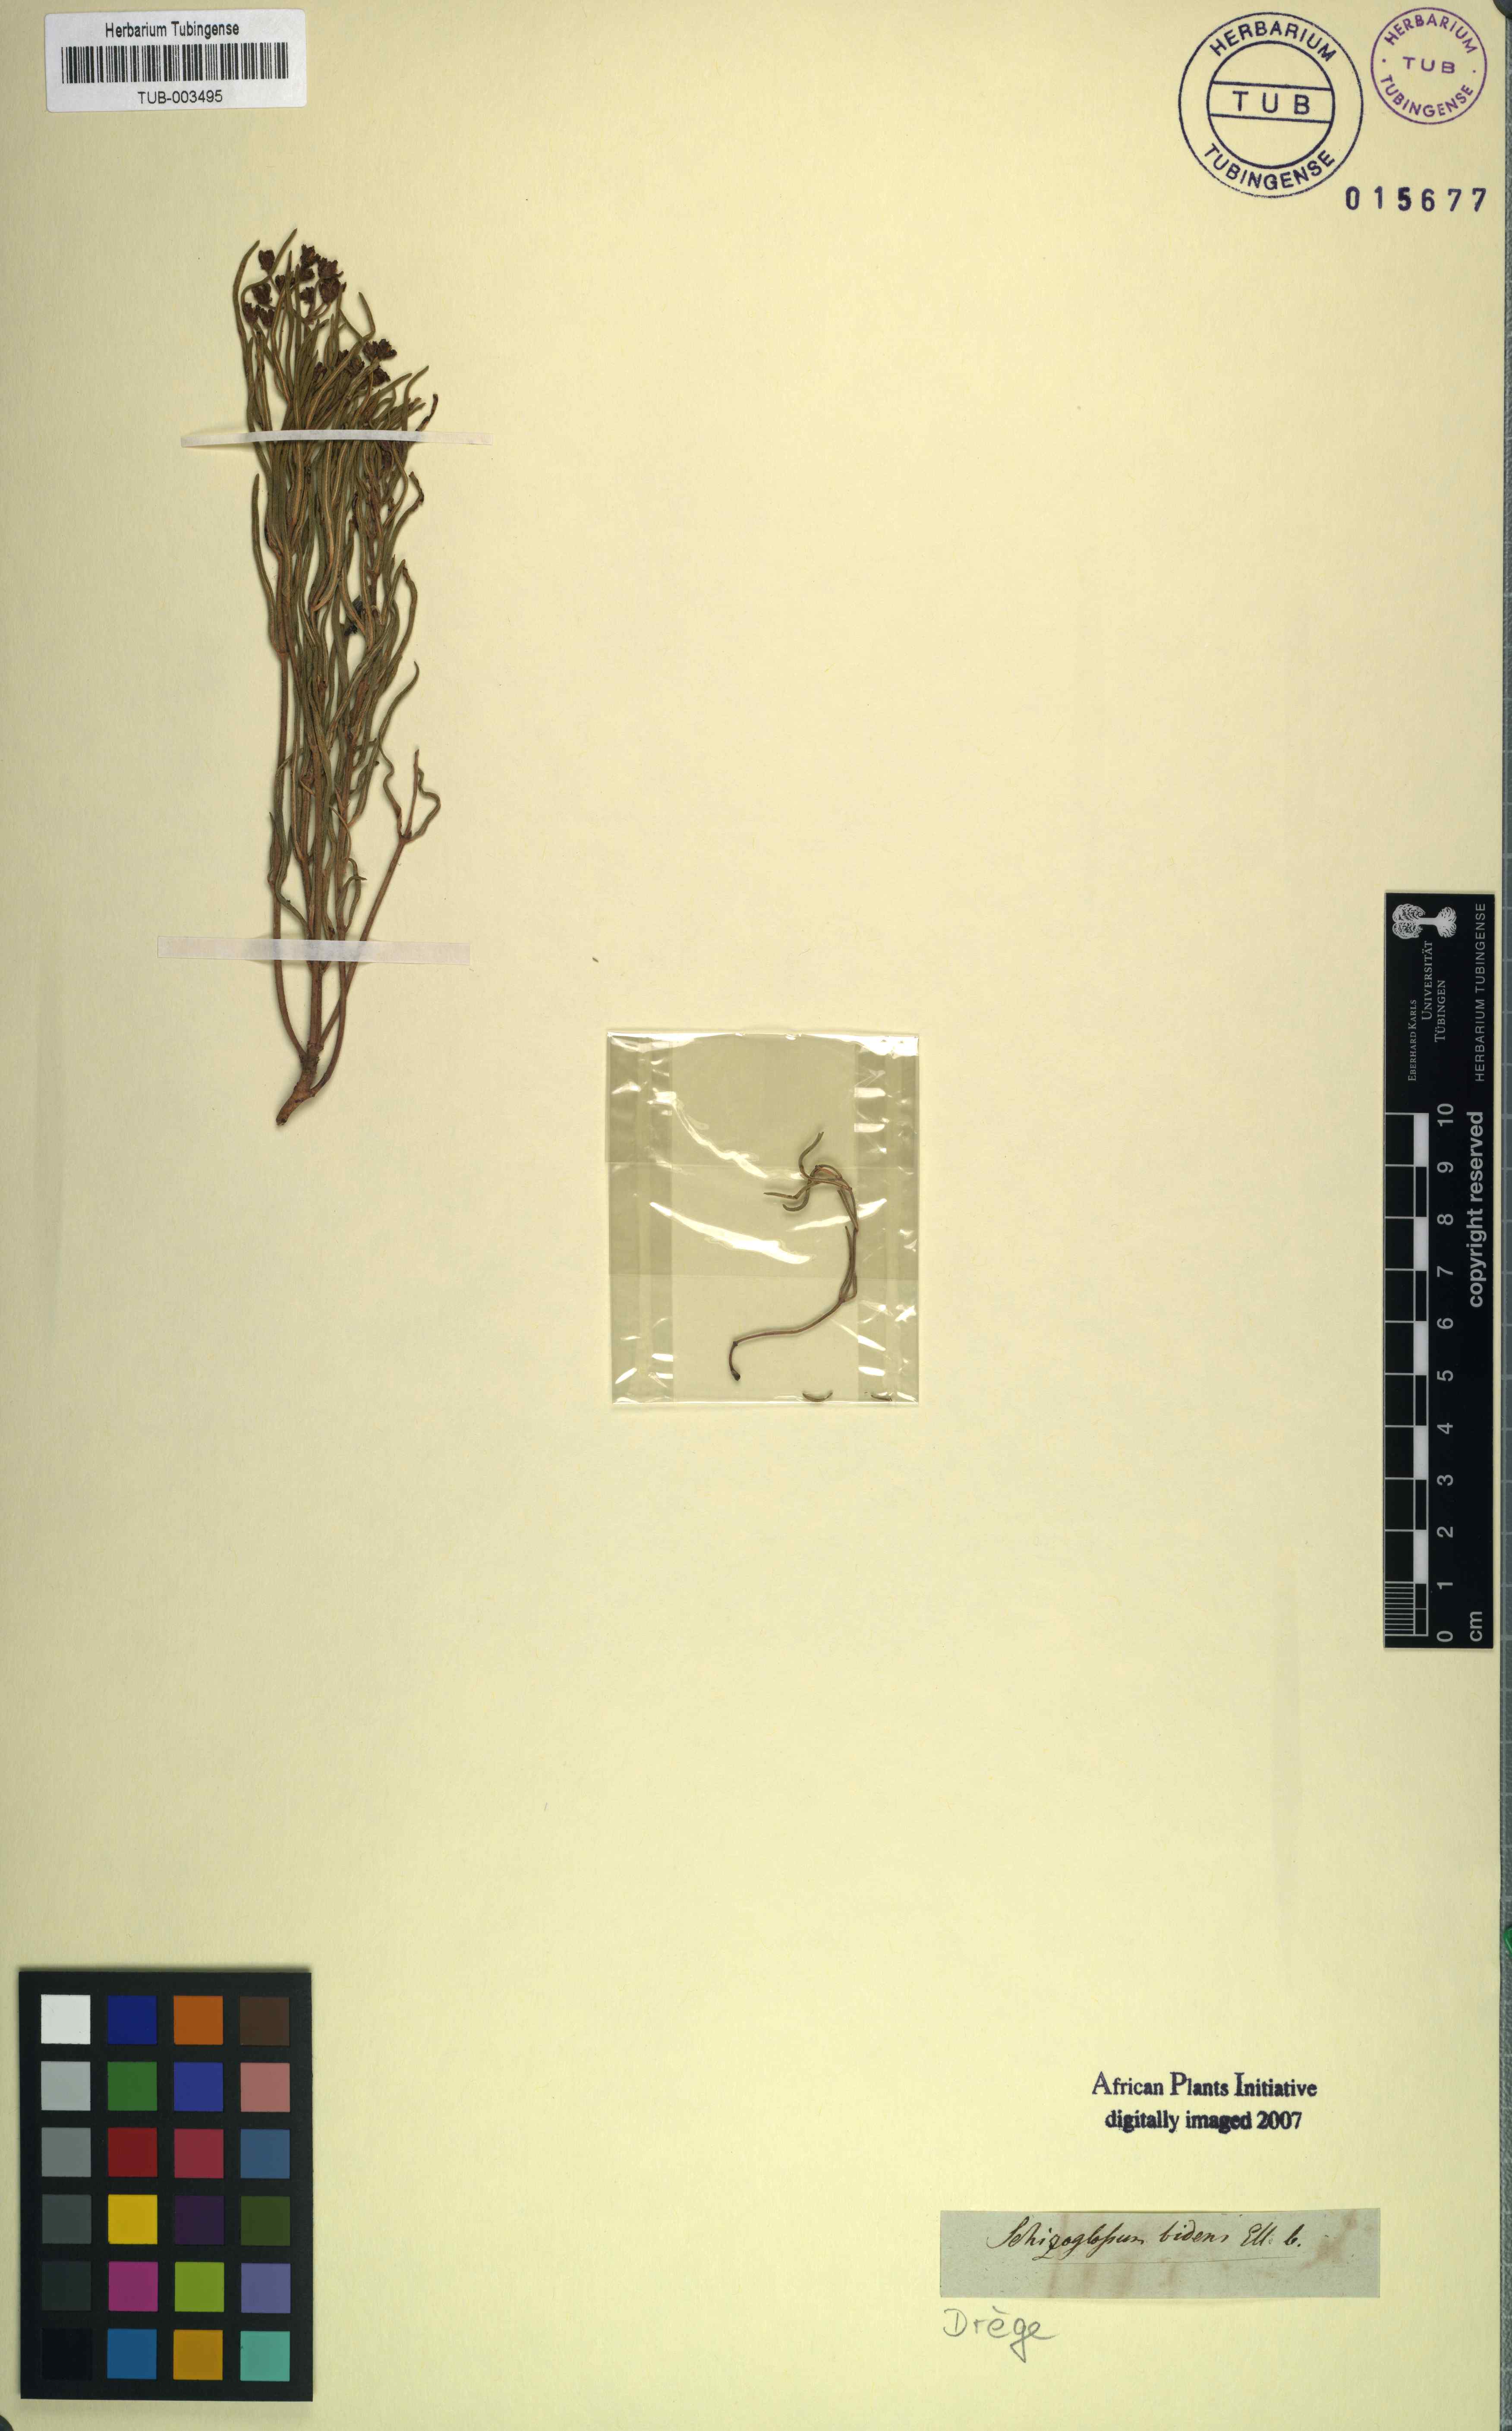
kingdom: Plantae
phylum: Tracheophyta
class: Magnoliopsida
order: Gentianales
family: Apocynaceae
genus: Schizoglossum
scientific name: Schizoglossum bidens
